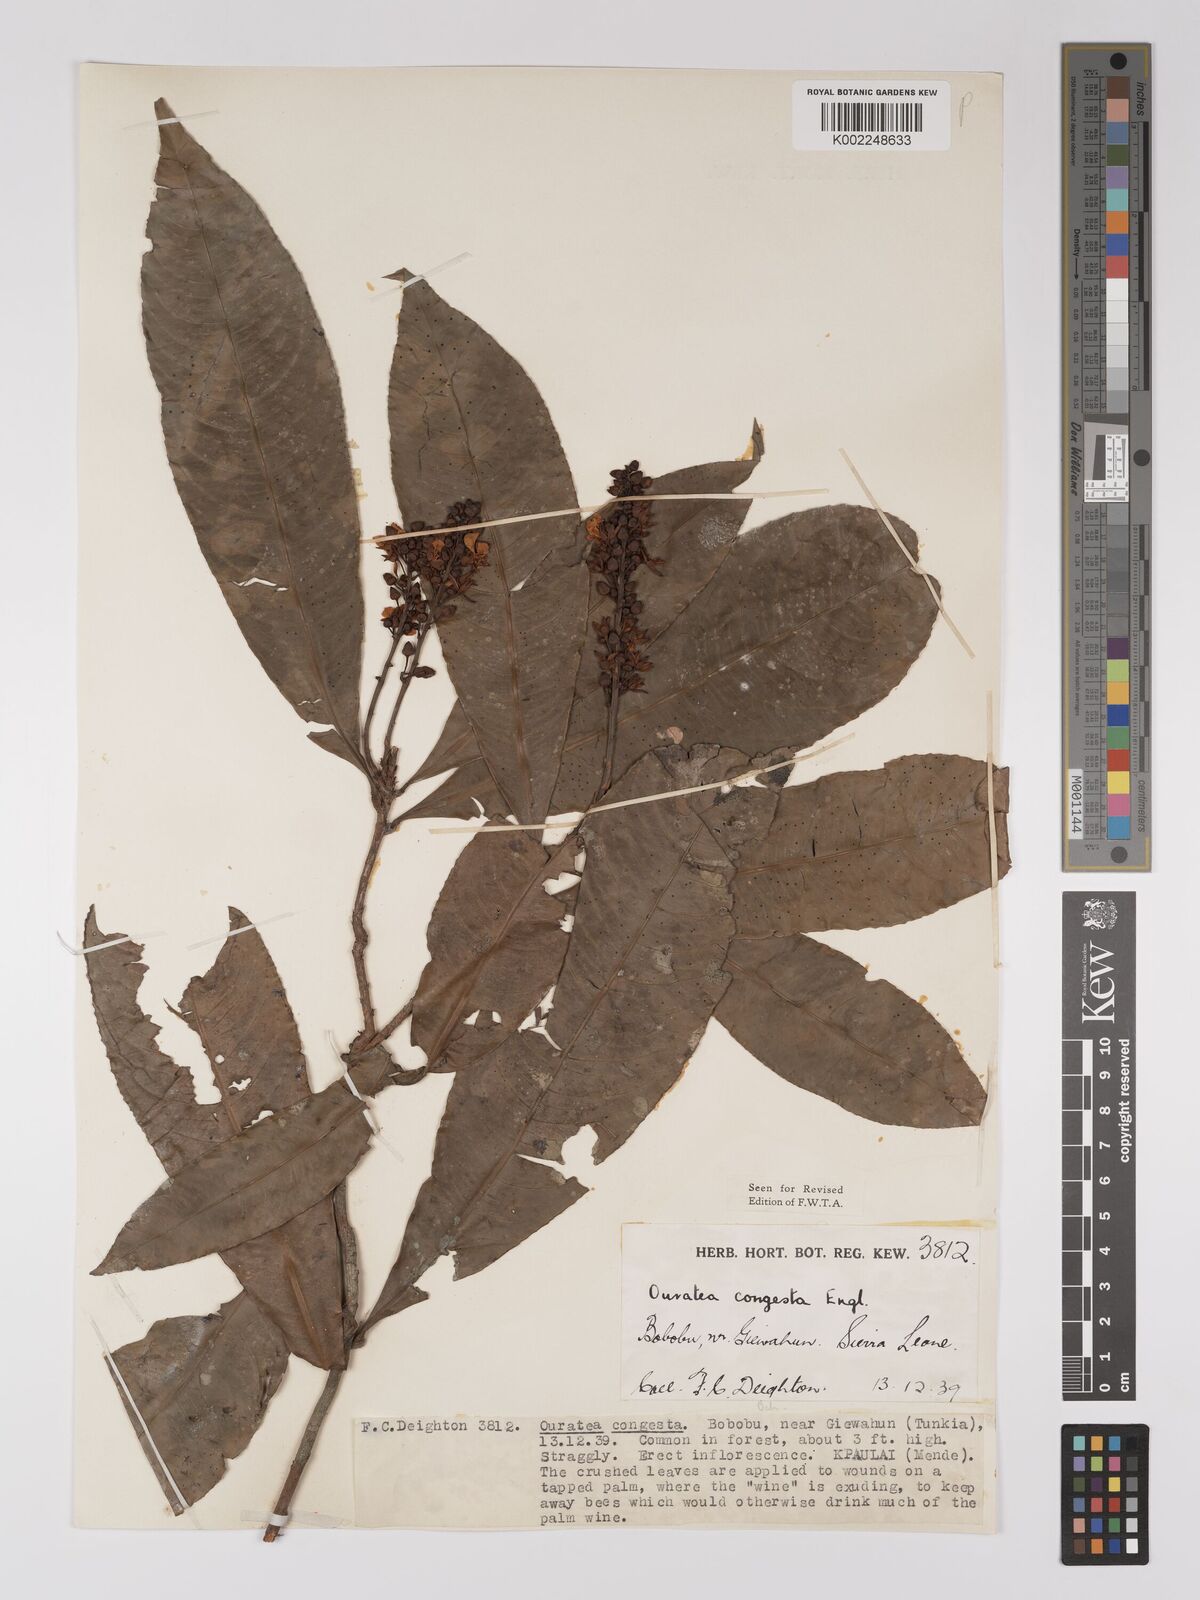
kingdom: Plantae
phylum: Tracheophyta
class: Magnoliopsida
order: Malpighiales
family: Ochnaceae
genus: Campylospermum
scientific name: Campylospermum congestum
